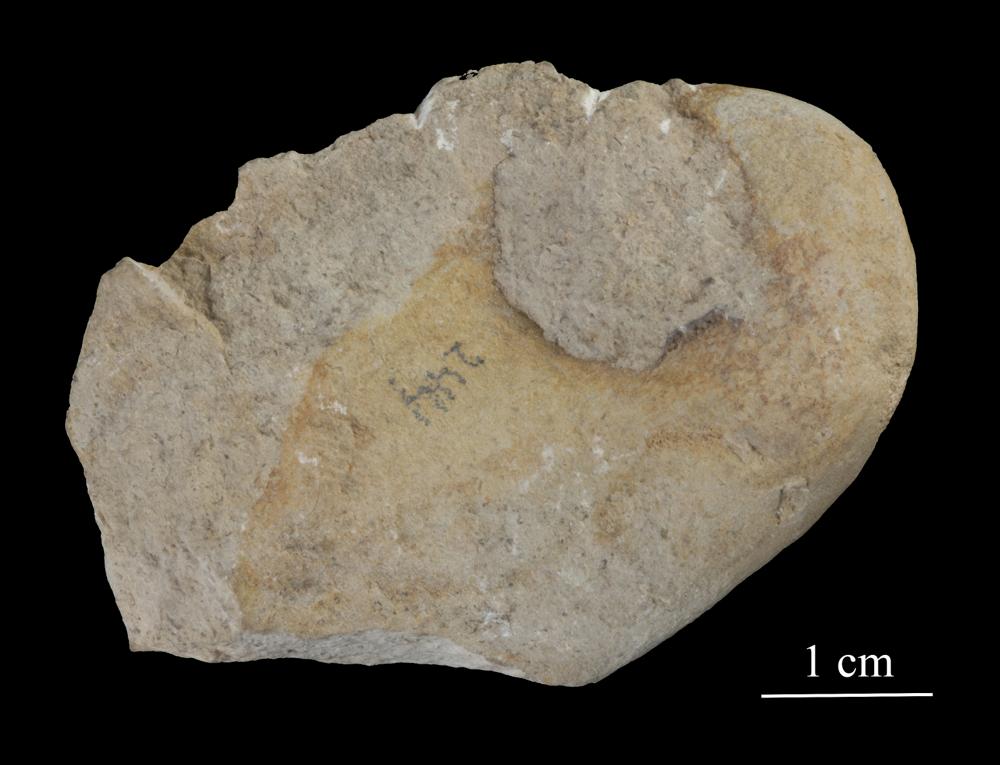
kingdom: Animalia
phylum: Mollusca
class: Gastropoda
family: Bucaniidae
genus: Salpingostoma
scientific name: Salpingostoma Bellerophon megalostoma
